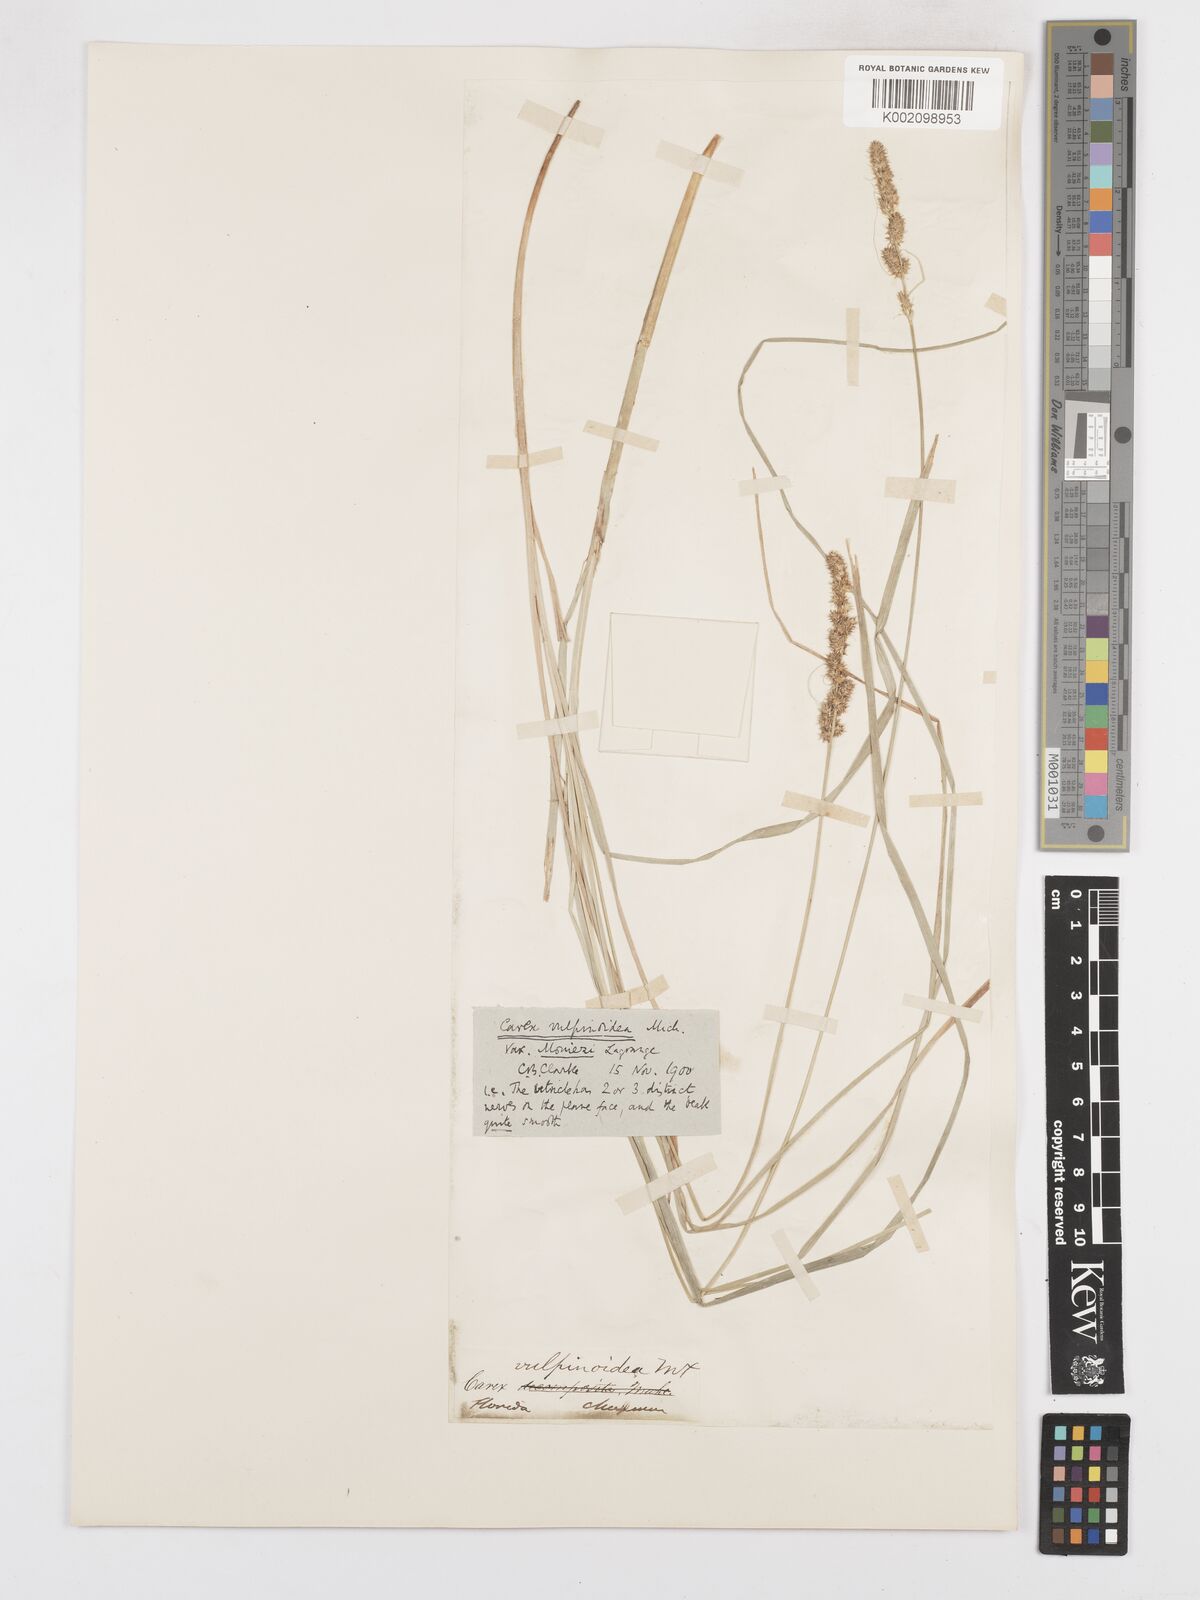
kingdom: Plantae
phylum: Tracheophyta
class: Liliopsida
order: Poales
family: Cyperaceae
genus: Carex
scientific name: Carex vulpinoidea
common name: American fox-sedge
